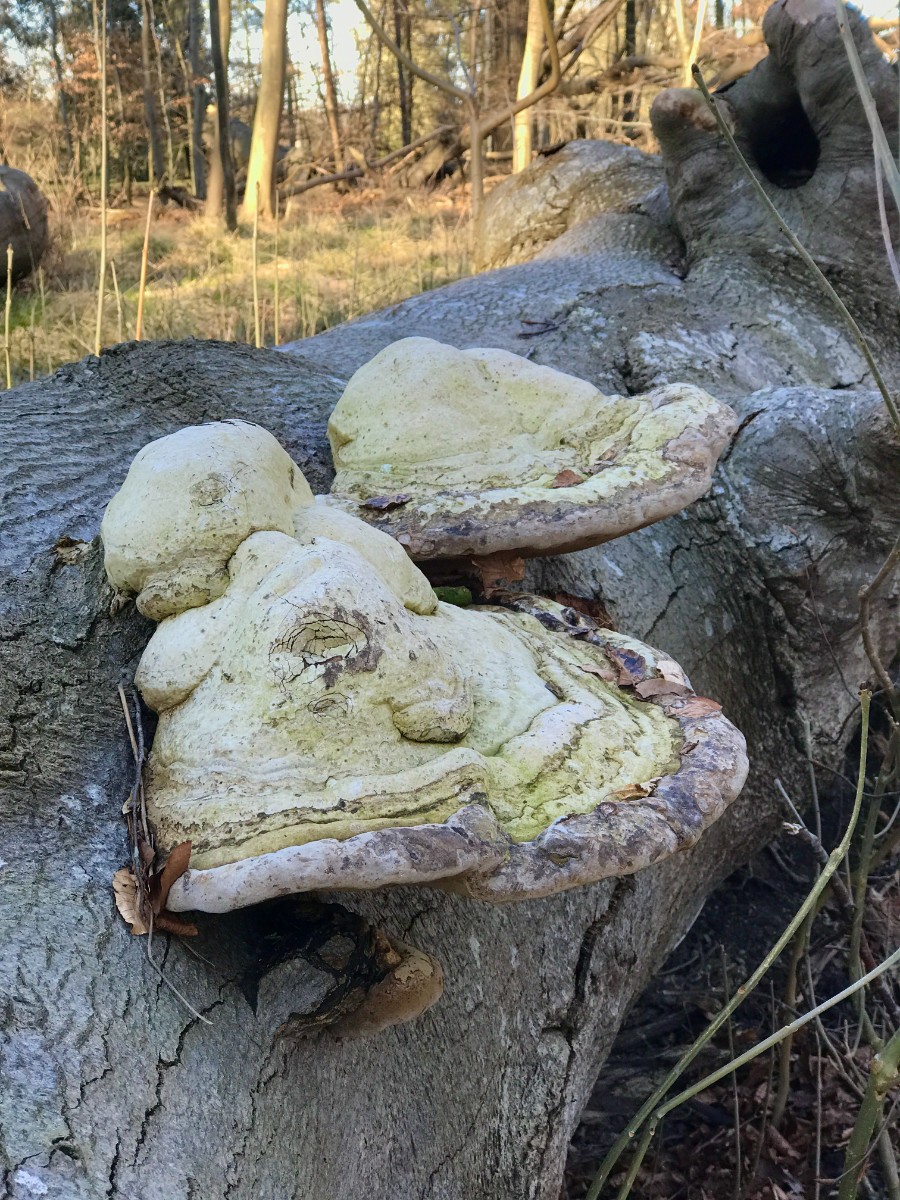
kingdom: Fungi
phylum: Basidiomycota
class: Agaricomycetes
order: Polyporales
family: Polyporaceae
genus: Fomes
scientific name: Fomes fomentarius
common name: tøndersvamp
